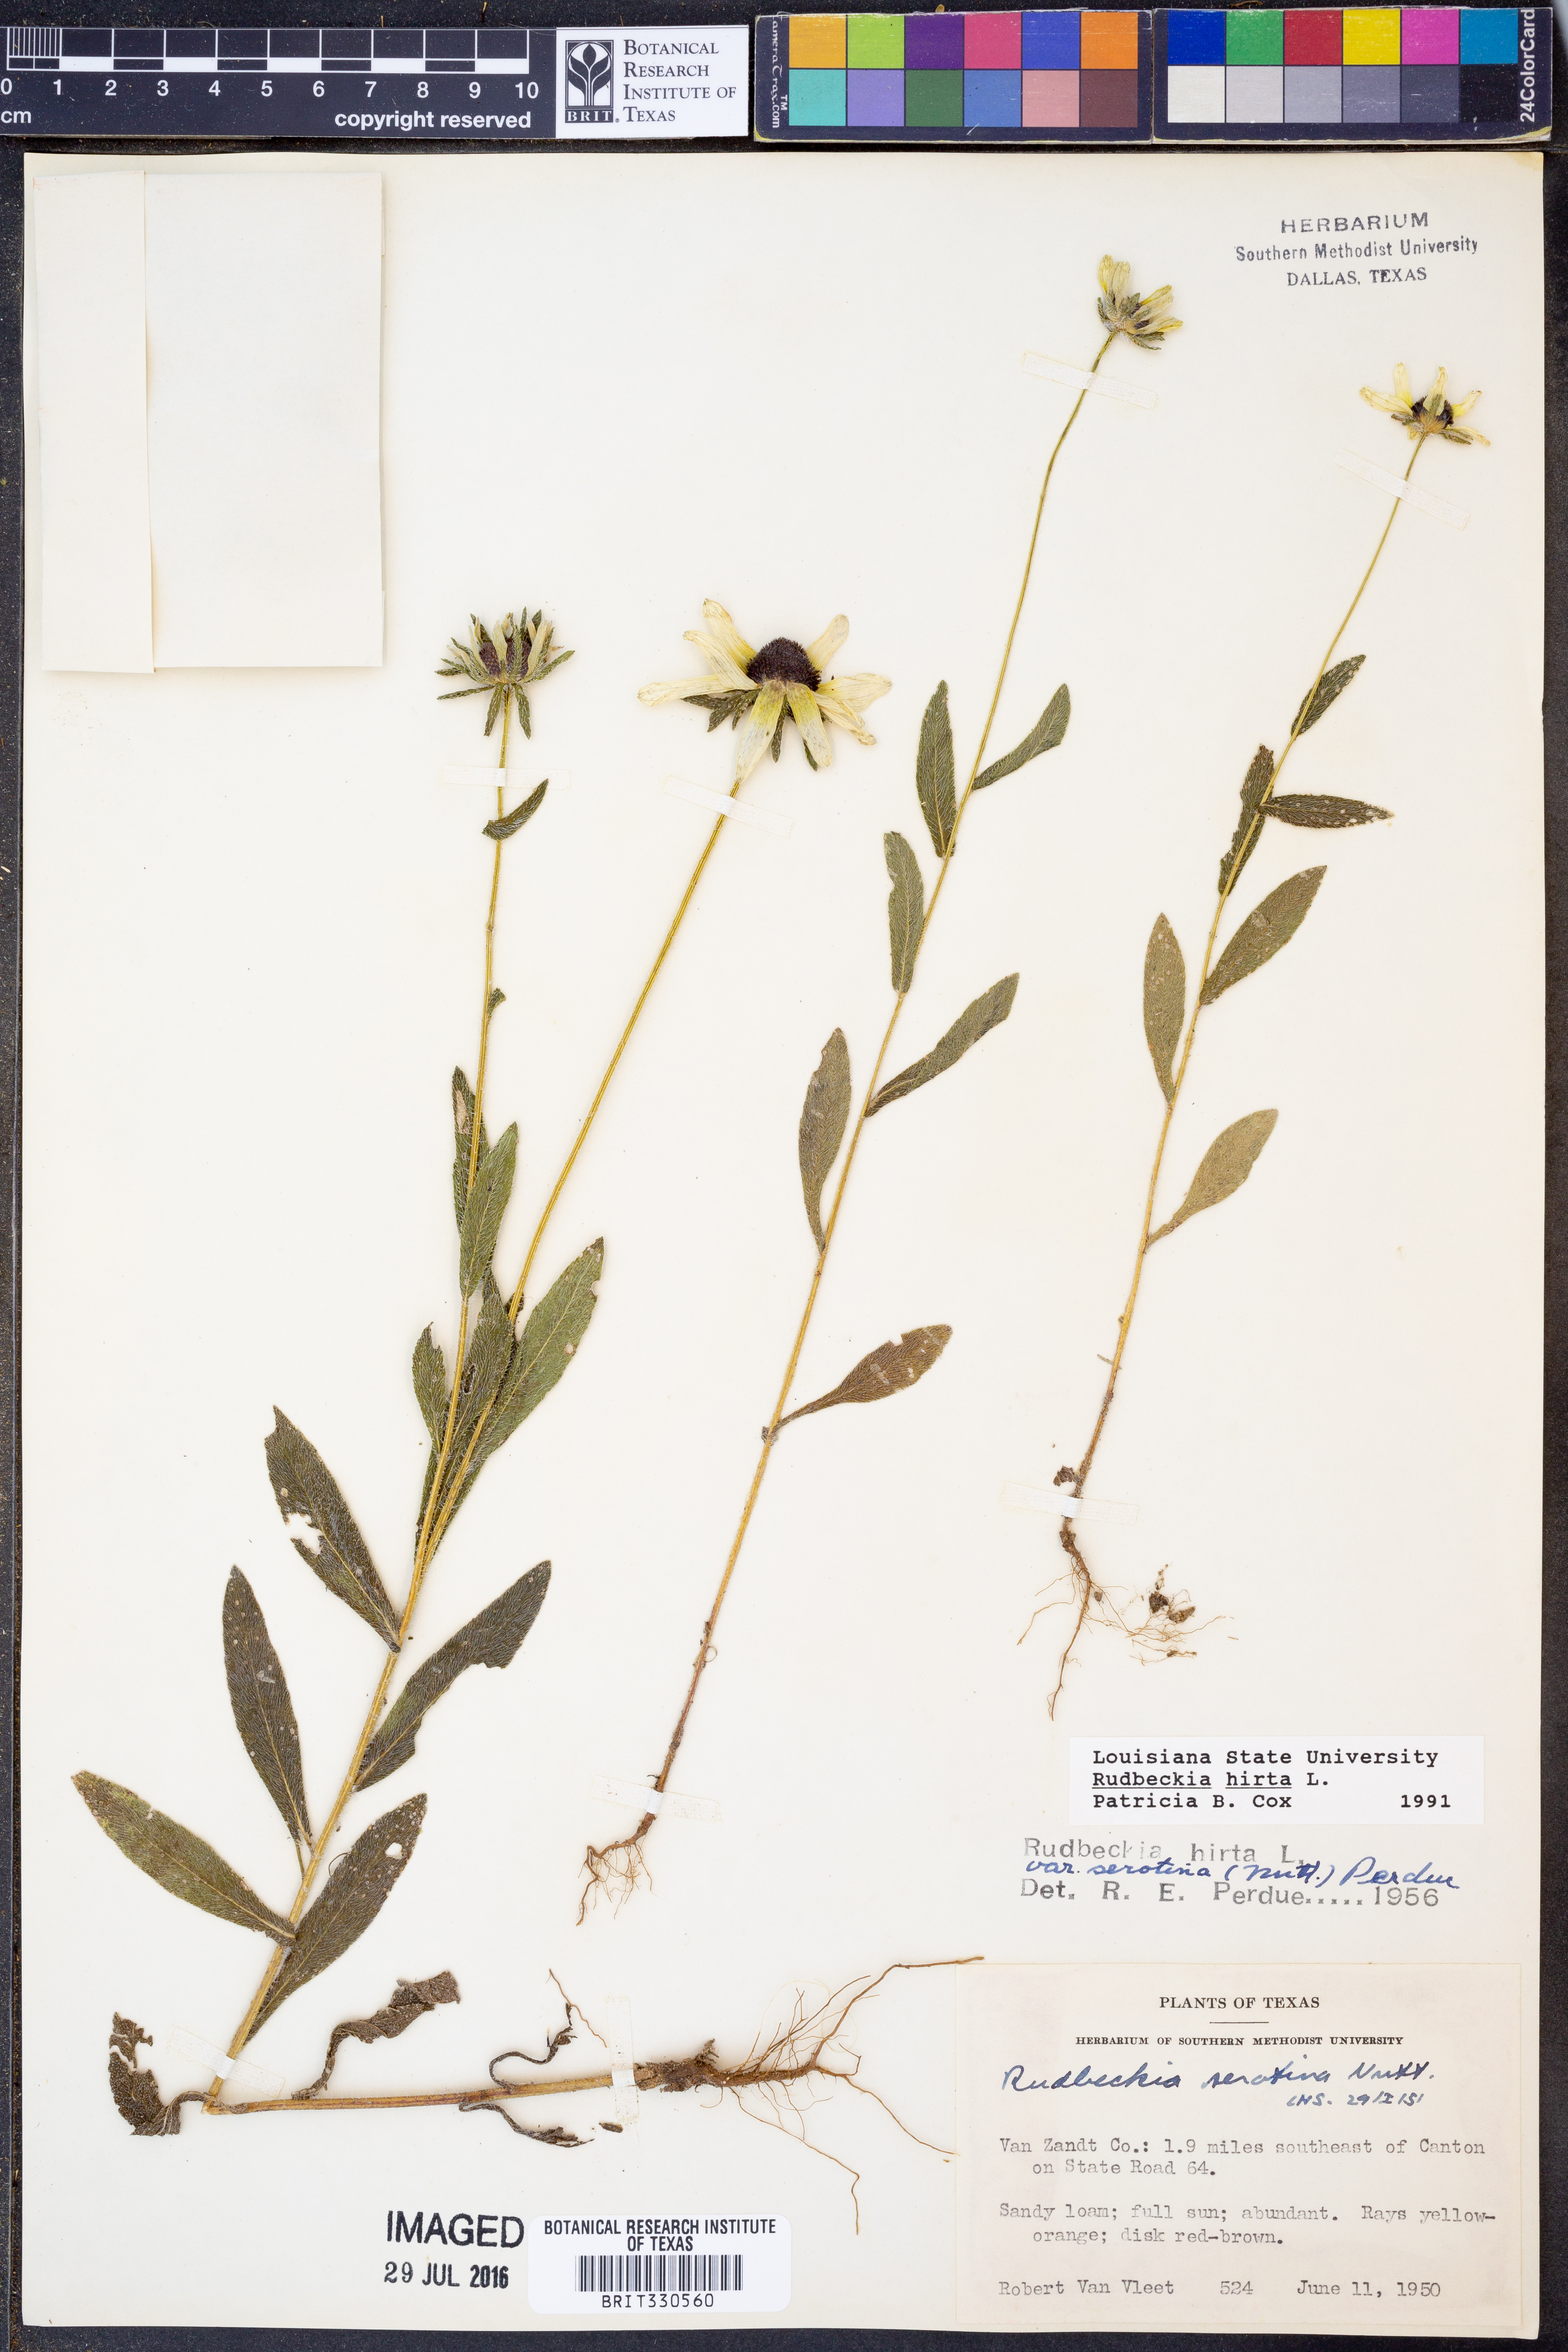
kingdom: Plantae
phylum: Tracheophyta
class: Magnoliopsida
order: Asterales
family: Asteraceae
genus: Rudbeckia
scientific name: Rudbeckia hirta
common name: Black-eyed-susan
